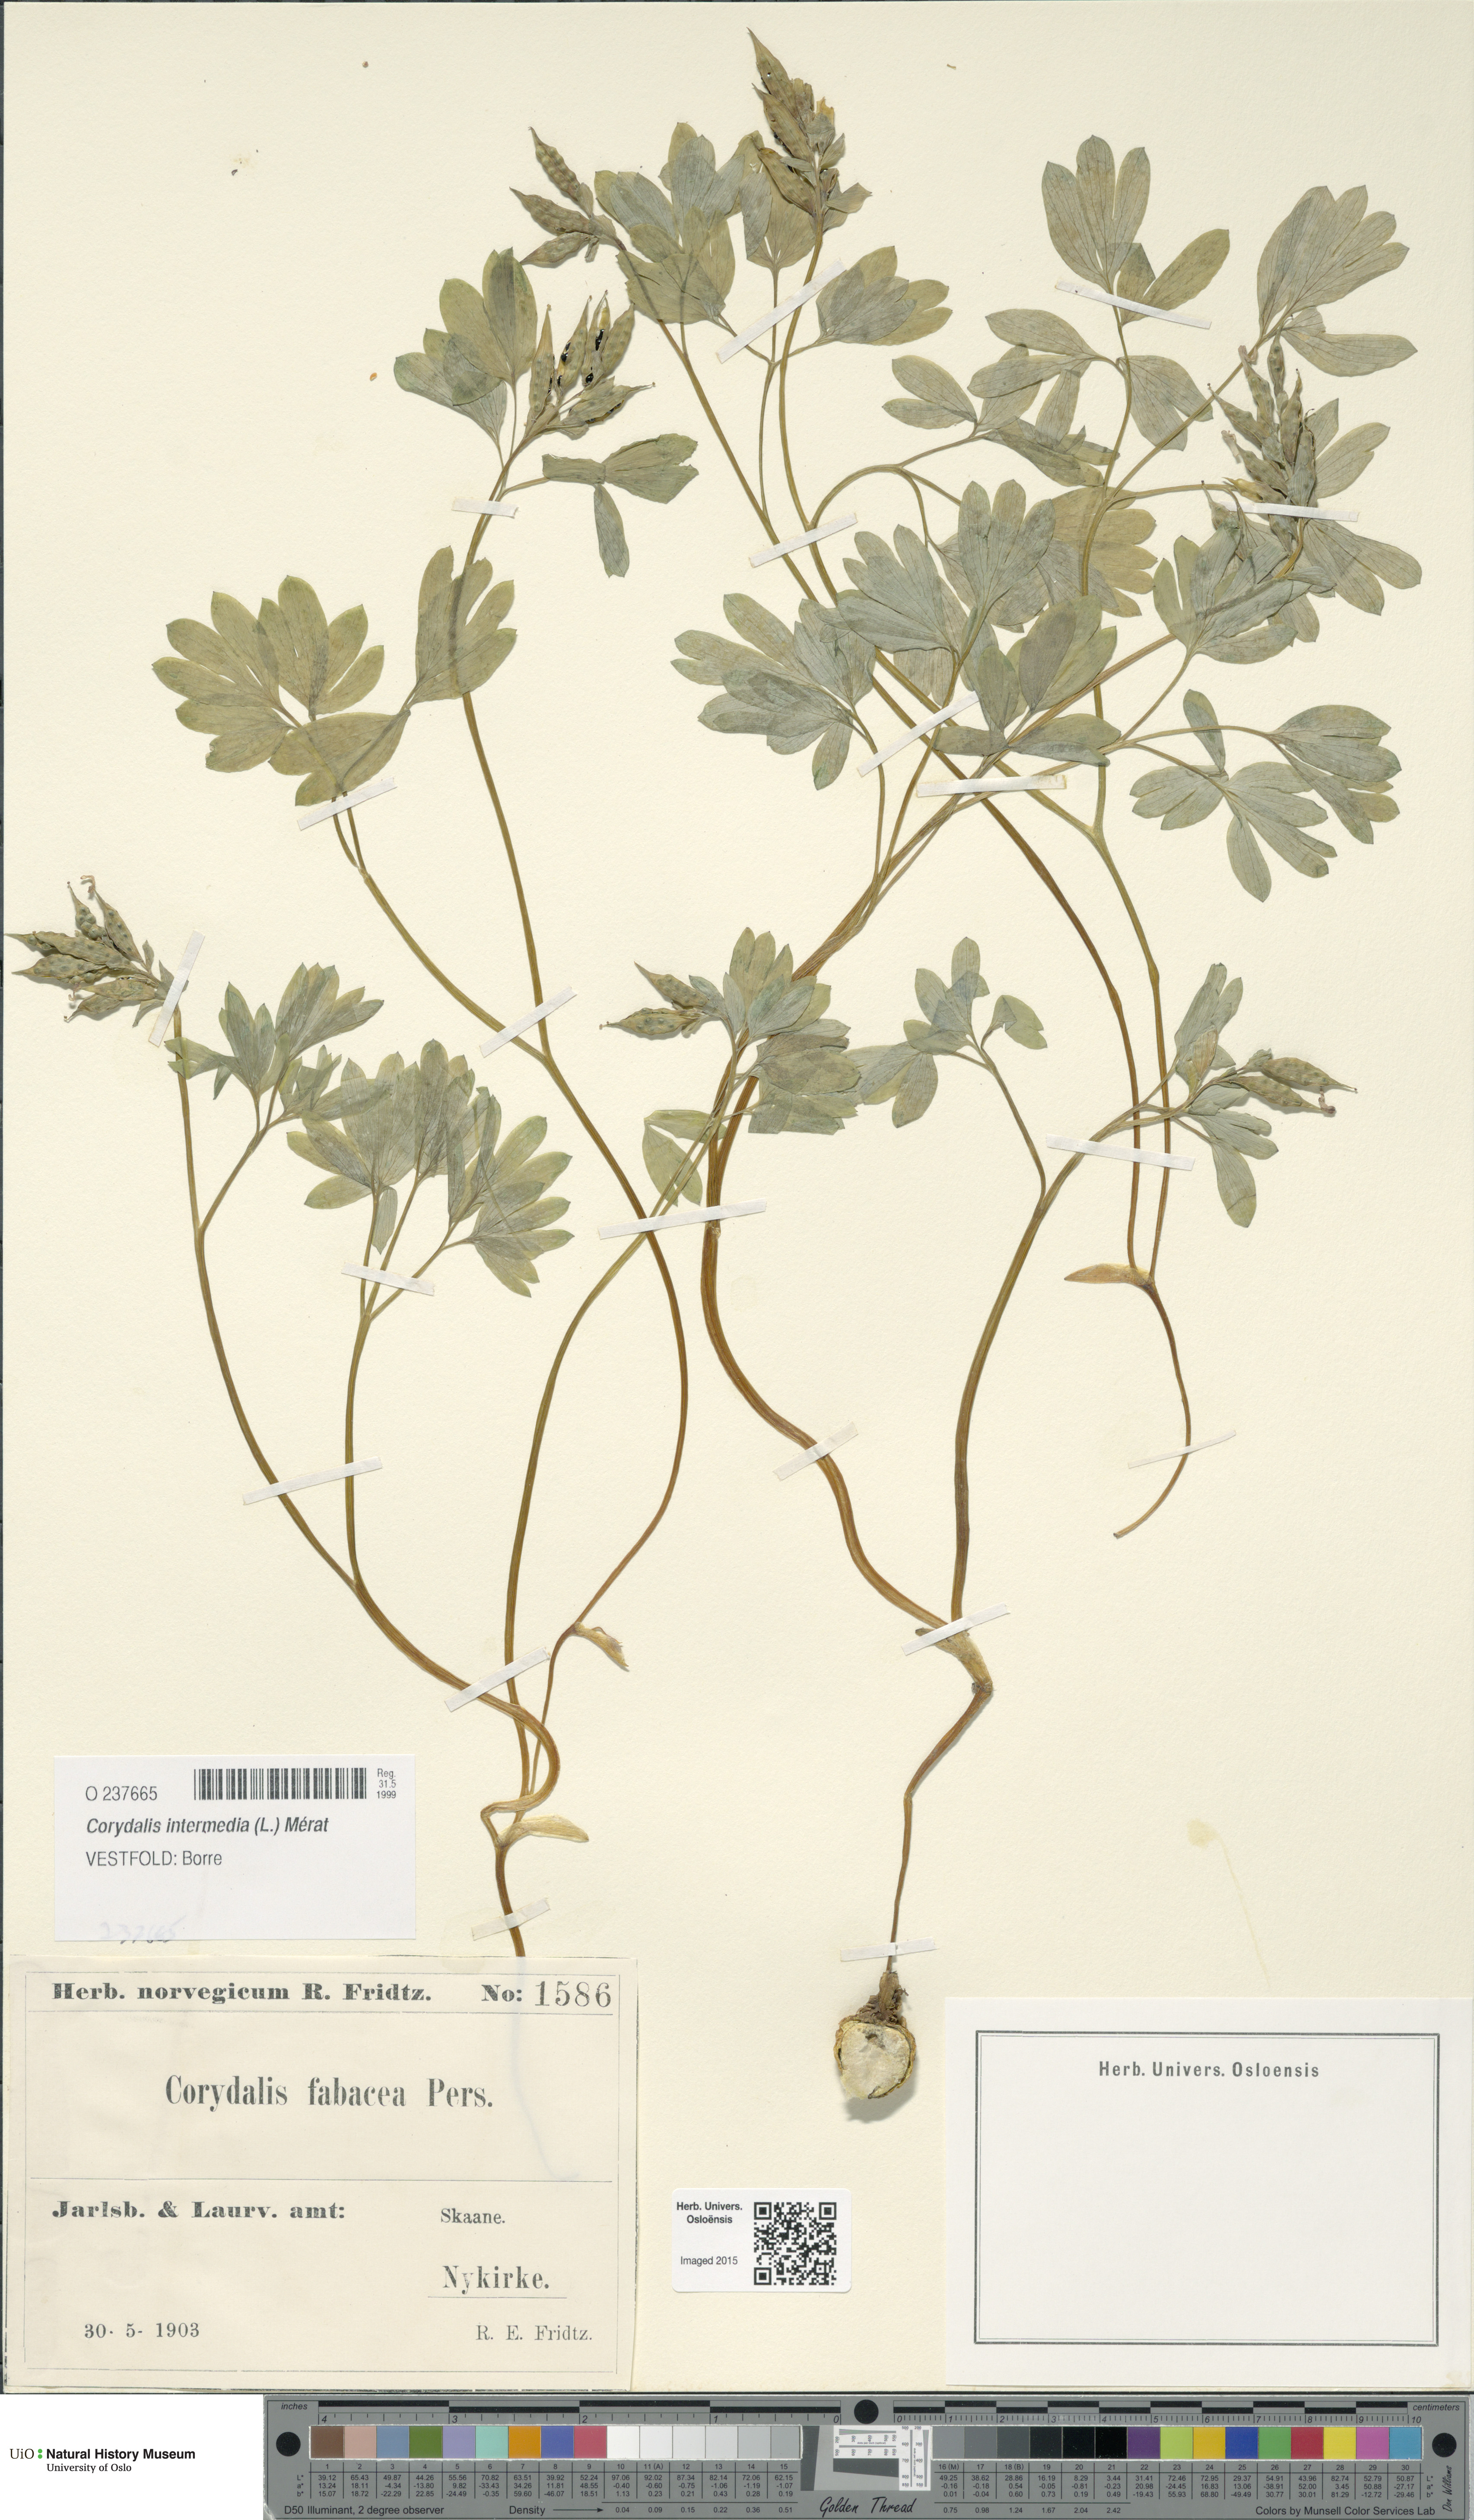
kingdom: Plantae
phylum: Tracheophyta
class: Magnoliopsida
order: Ranunculales
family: Papaveraceae
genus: Corydalis
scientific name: Corydalis intermedia
